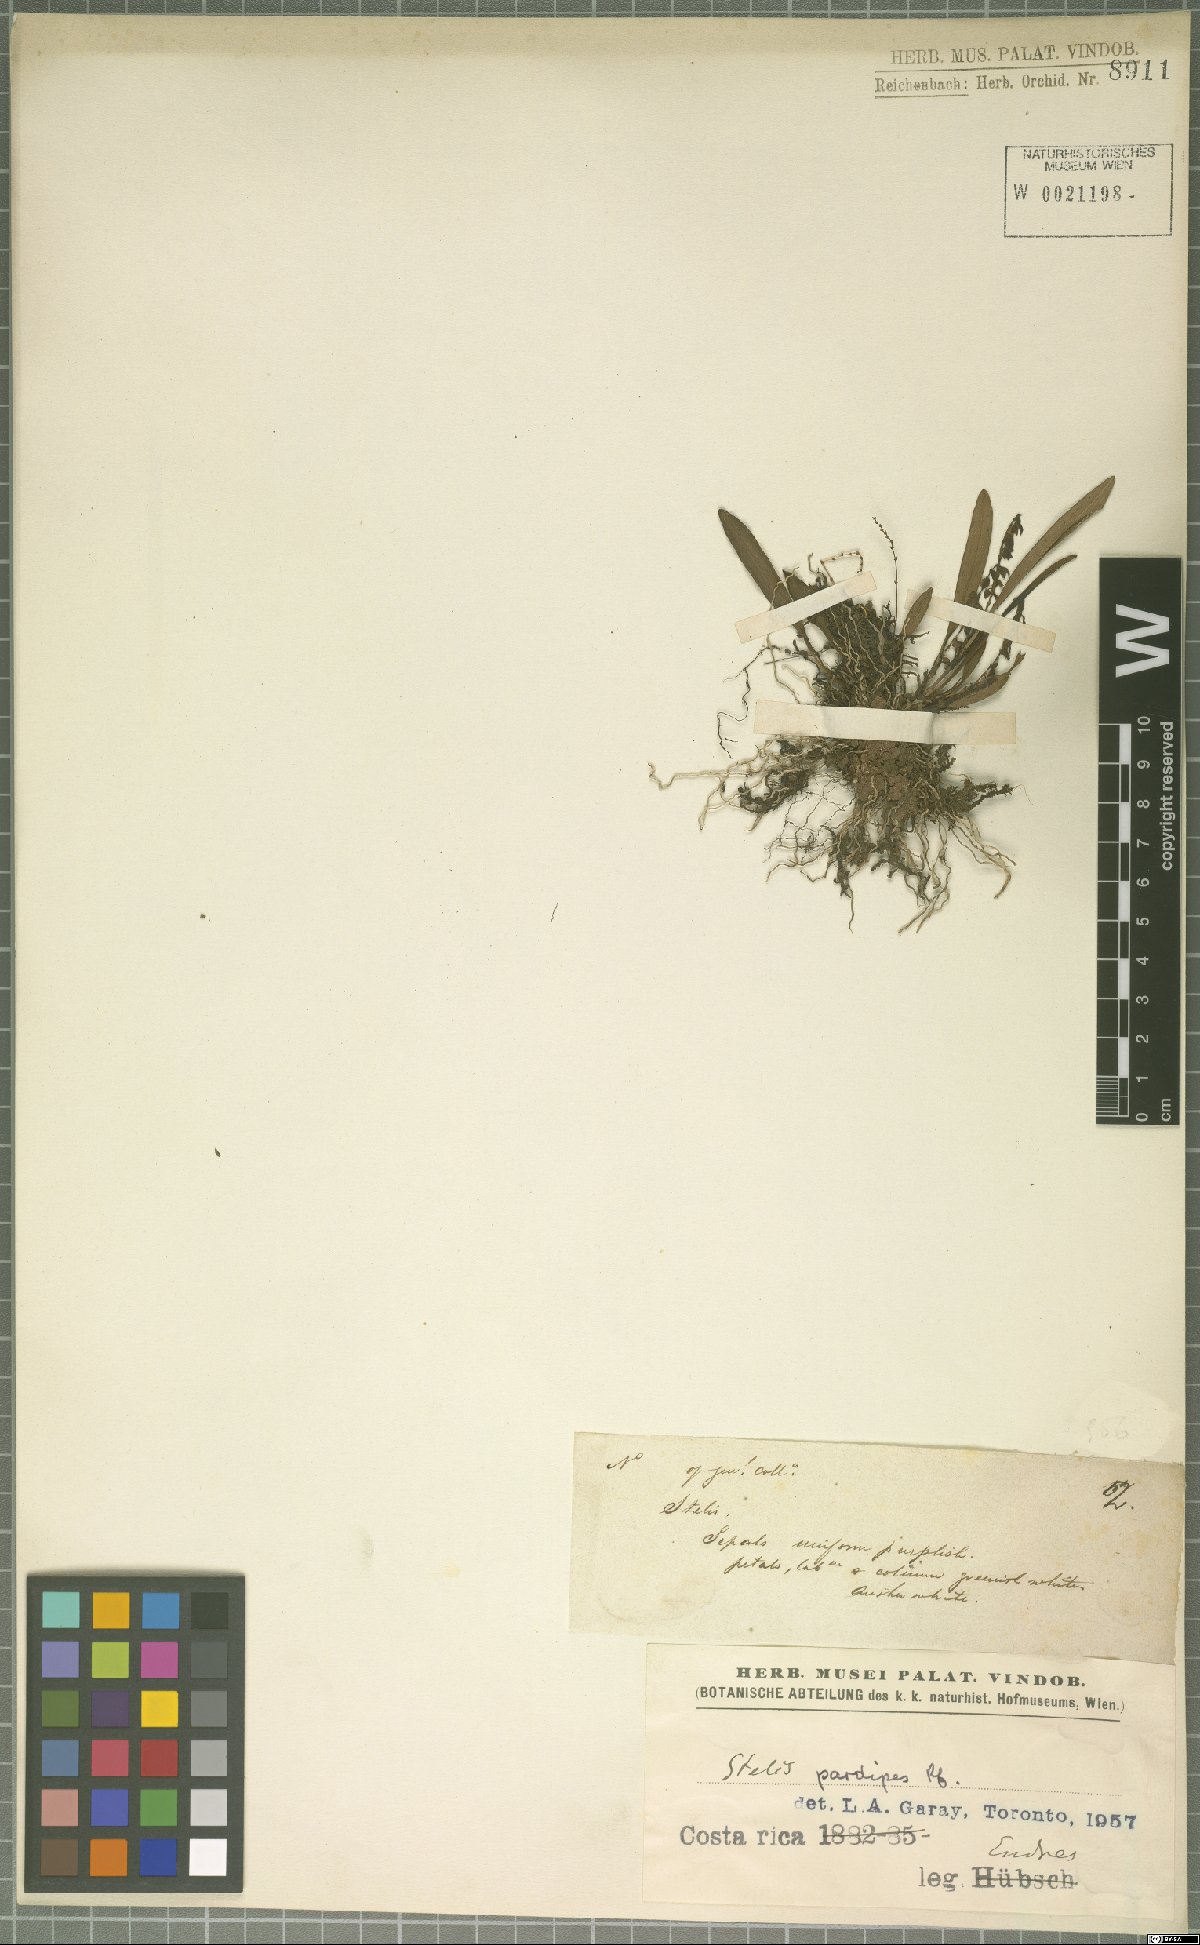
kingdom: Plantae
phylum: Tracheophyta
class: Liliopsida
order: Asparagales
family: Orchidaceae
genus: Stelis
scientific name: Stelis pardipes
